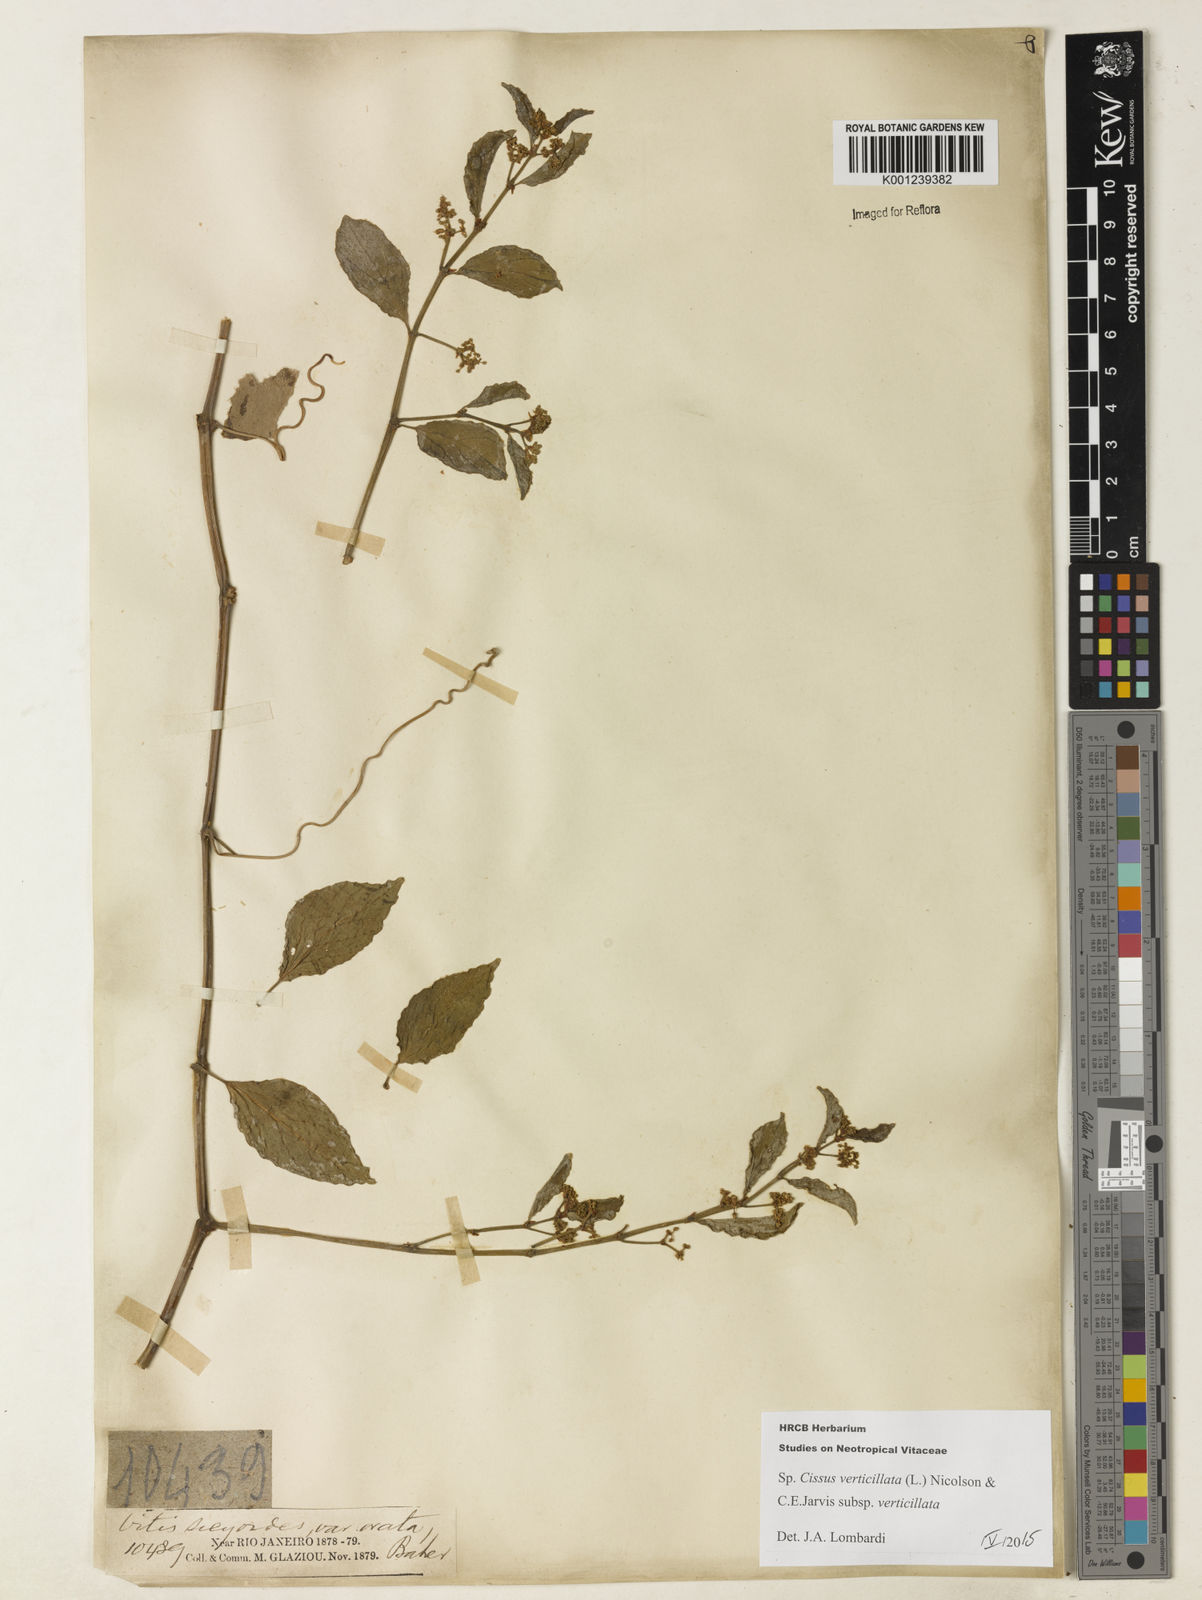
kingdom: Plantae
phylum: Tracheophyta
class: Magnoliopsida
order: Vitales
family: Vitaceae
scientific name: Vitaceae
